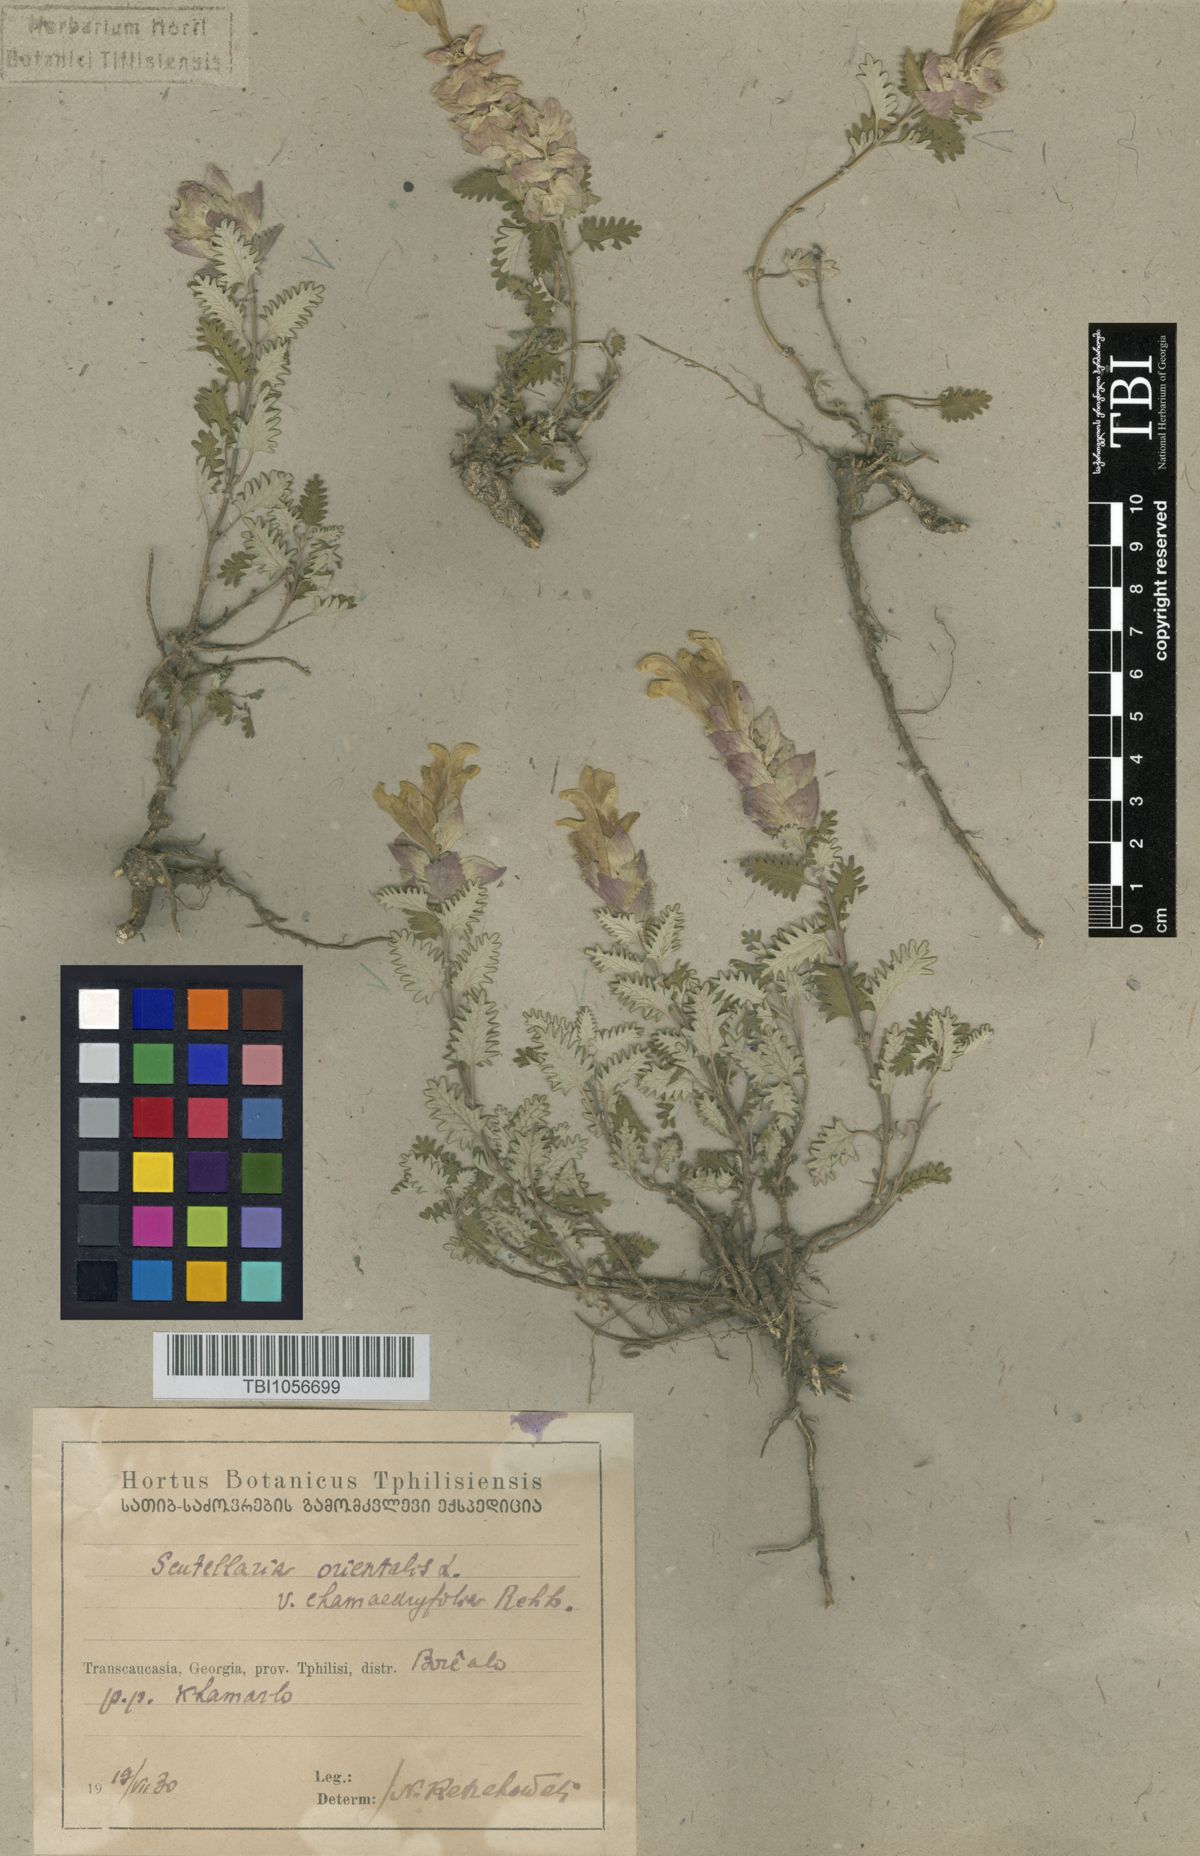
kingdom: Plantae
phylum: Tracheophyta
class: Magnoliopsida
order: Lamiales
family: Lamiaceae
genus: Scutellaria
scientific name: Scutellaria orientalis
